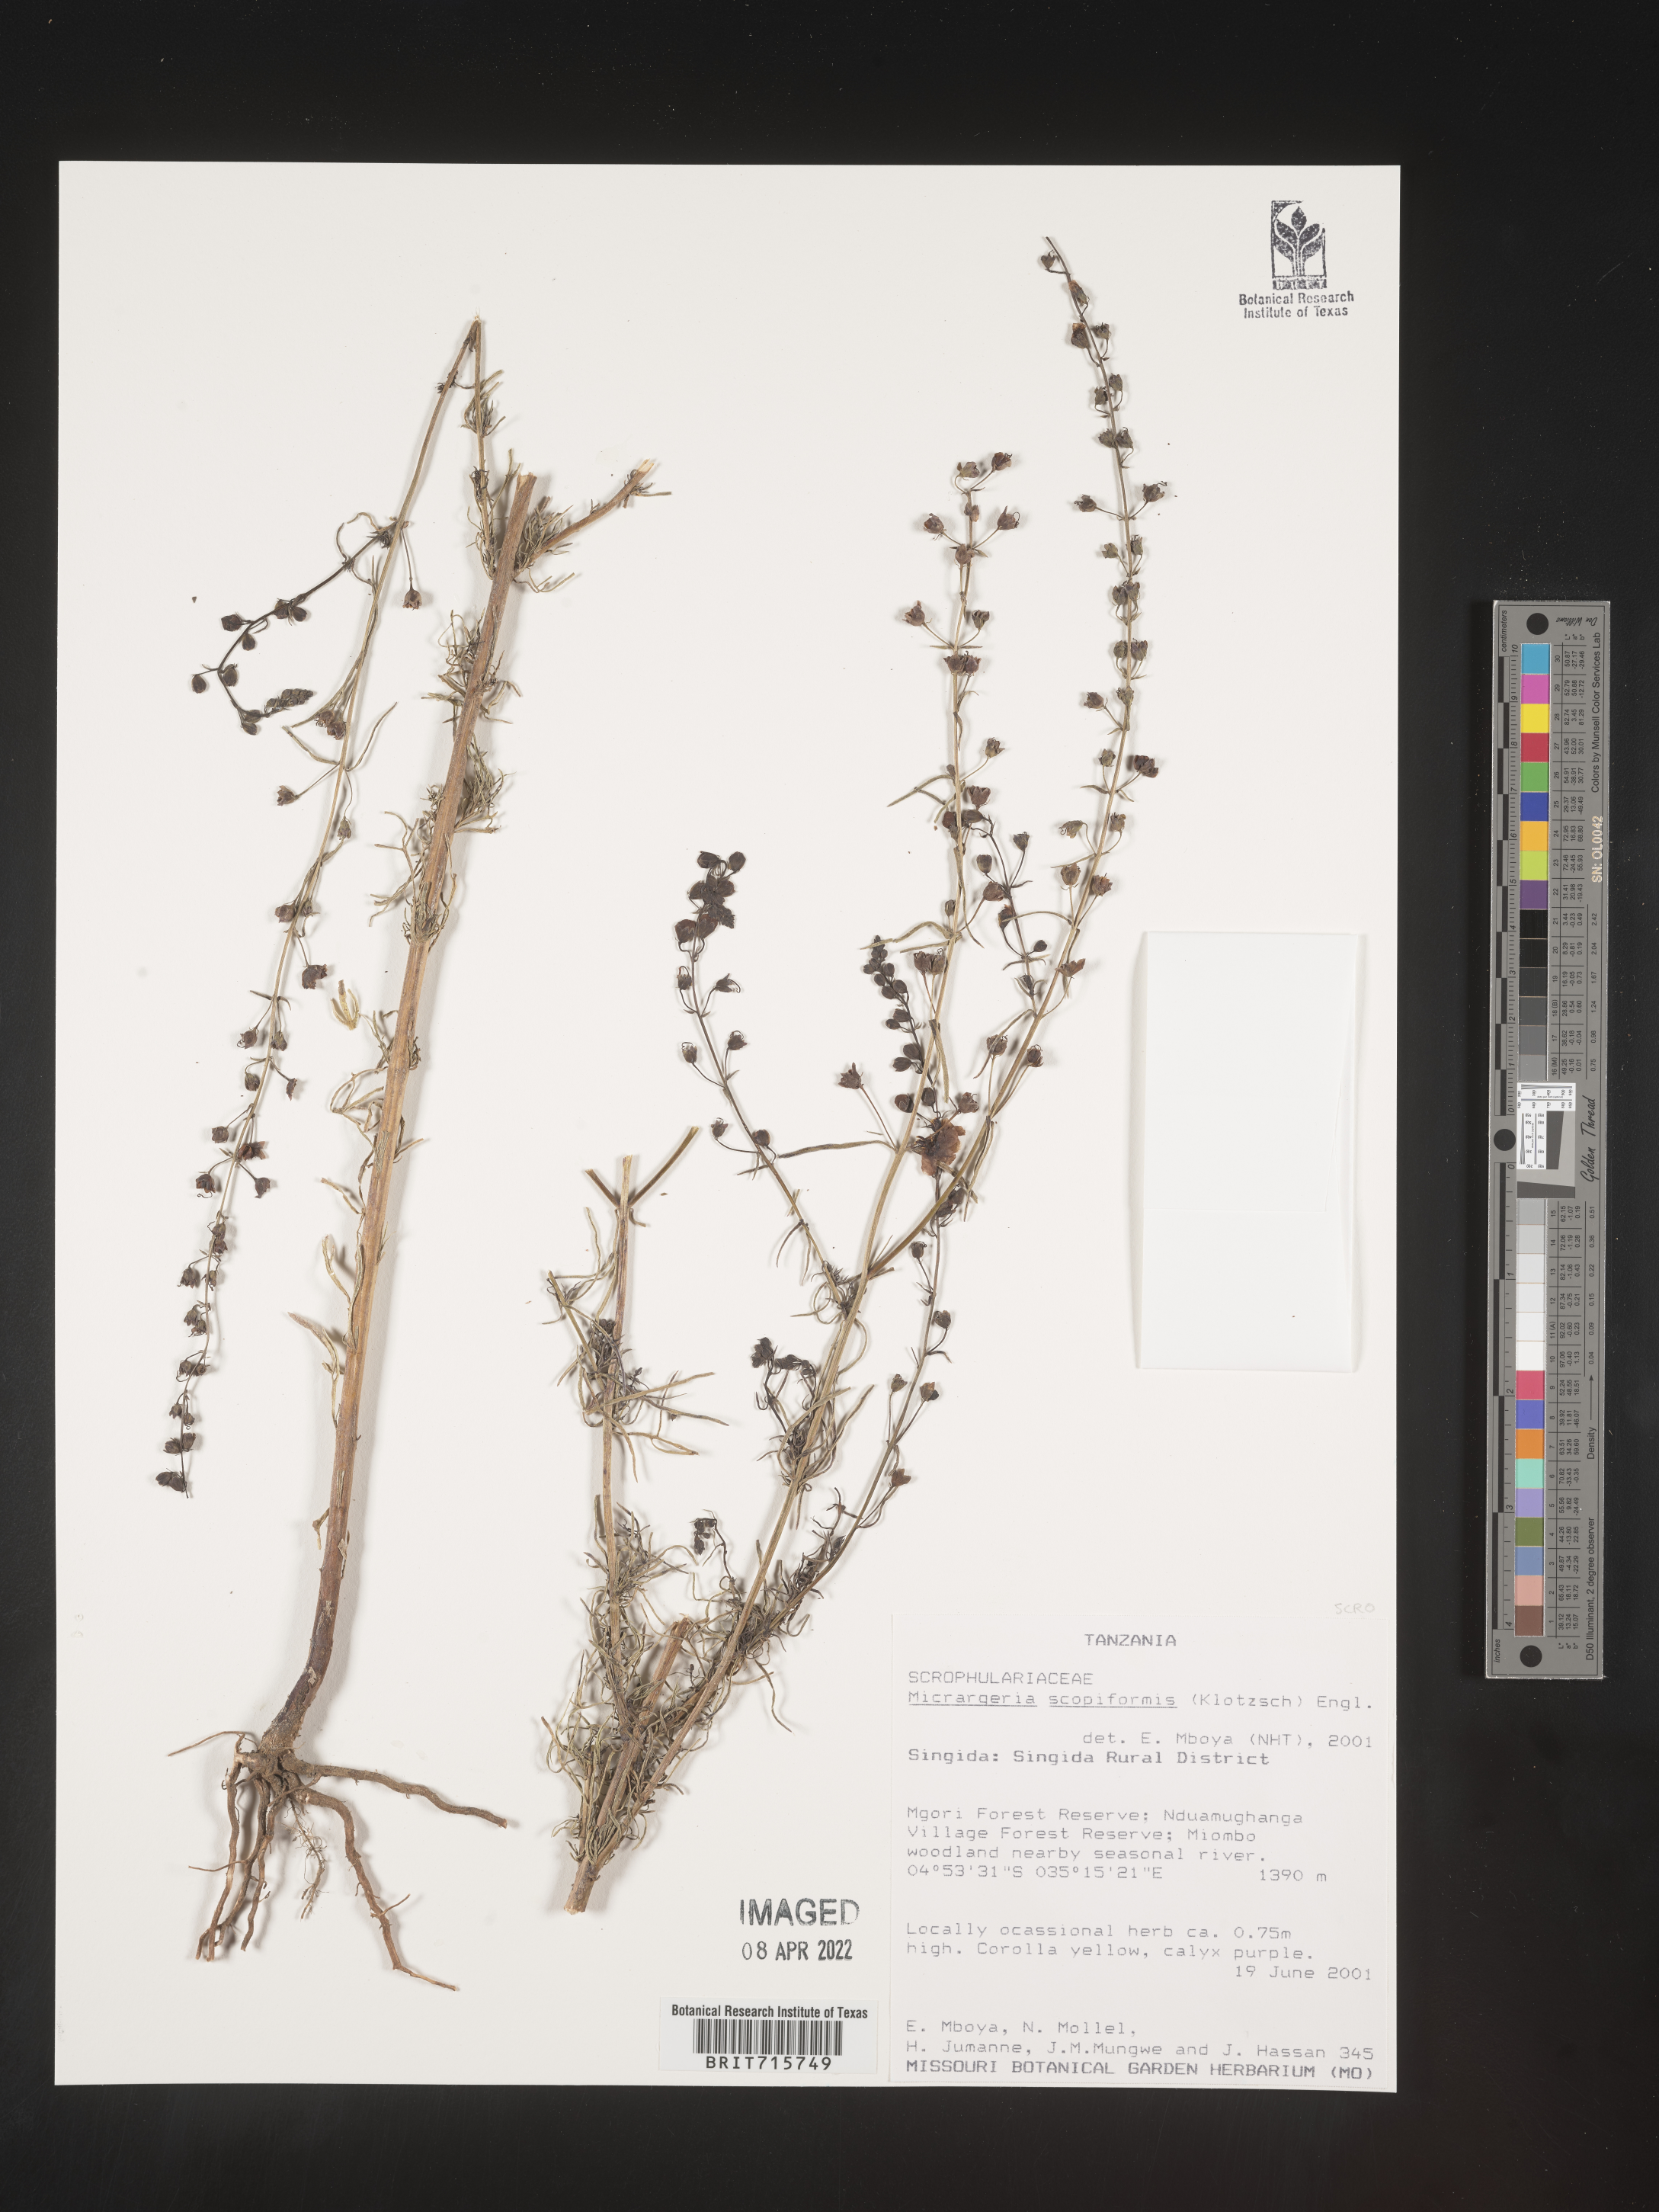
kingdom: Plantae
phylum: Tracheophyta
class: Magnoliopsida
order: Lamiales
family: Orobanchaceae
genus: Micrargeria
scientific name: Micrargeria
